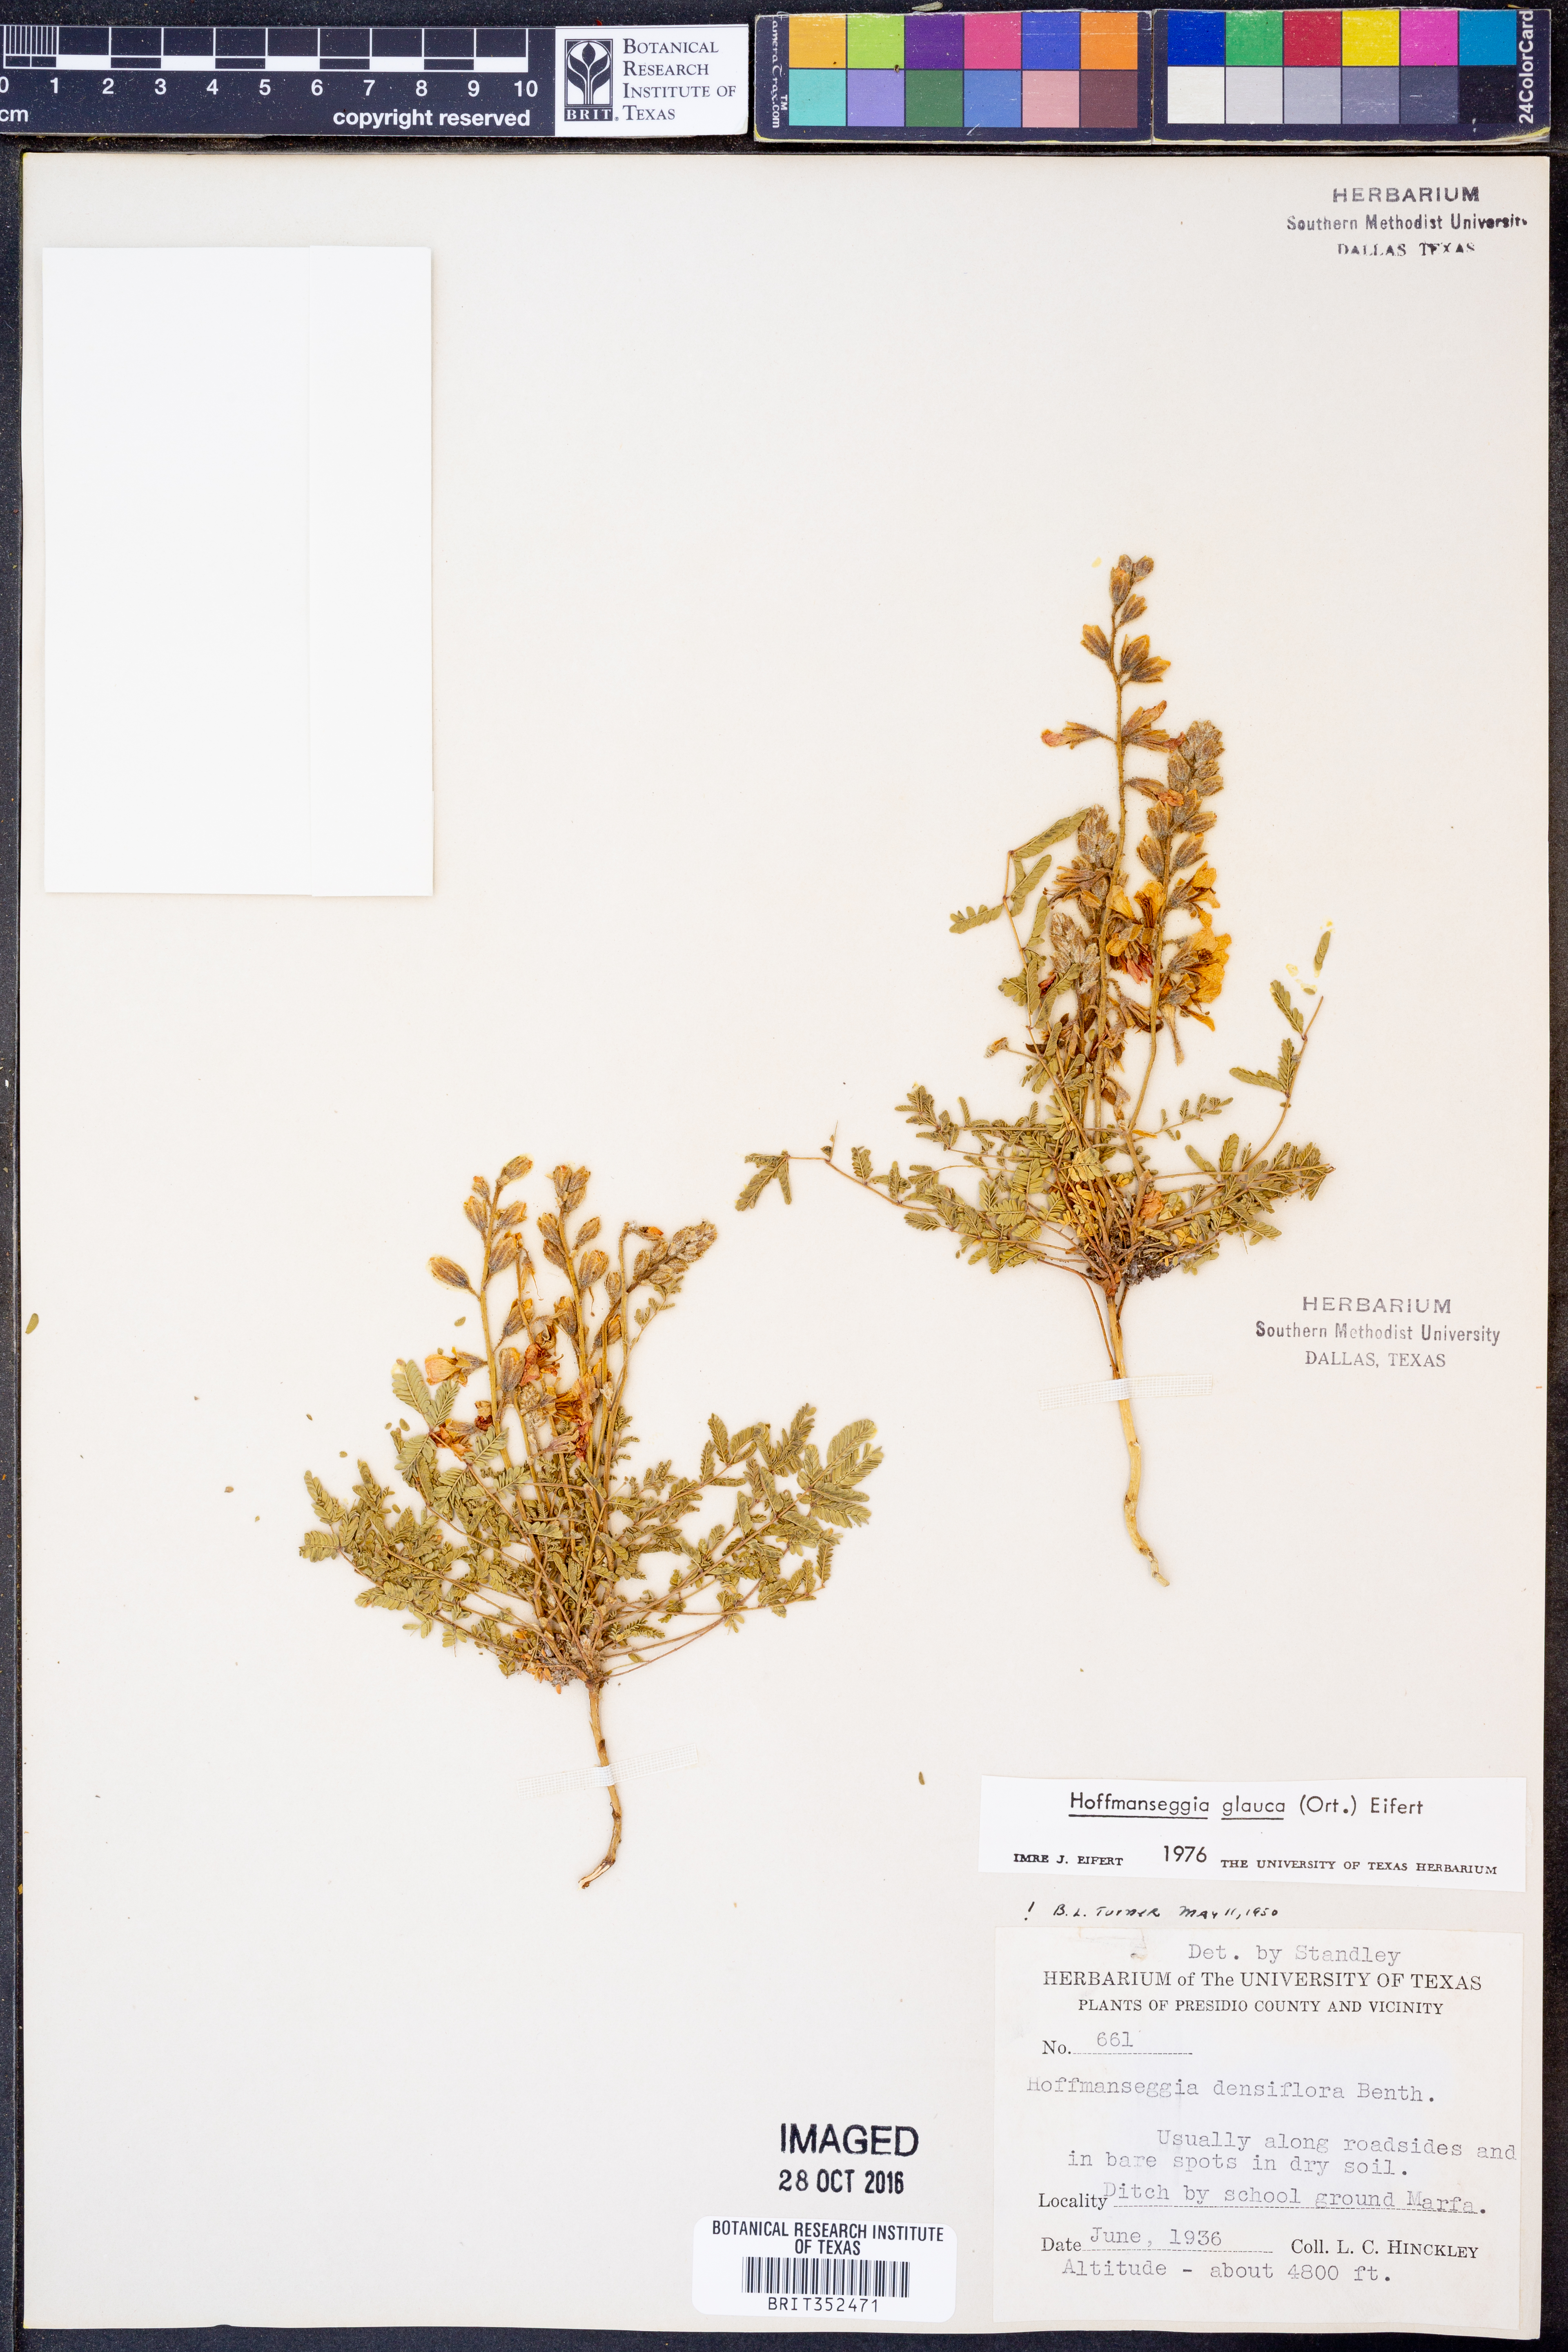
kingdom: Plantae
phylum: Tracheophyta
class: Magnoliopsida
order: Fabales
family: Fabaceae
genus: Hoffmannseggia
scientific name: Hoffmannseggia glauca
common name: Pignut
